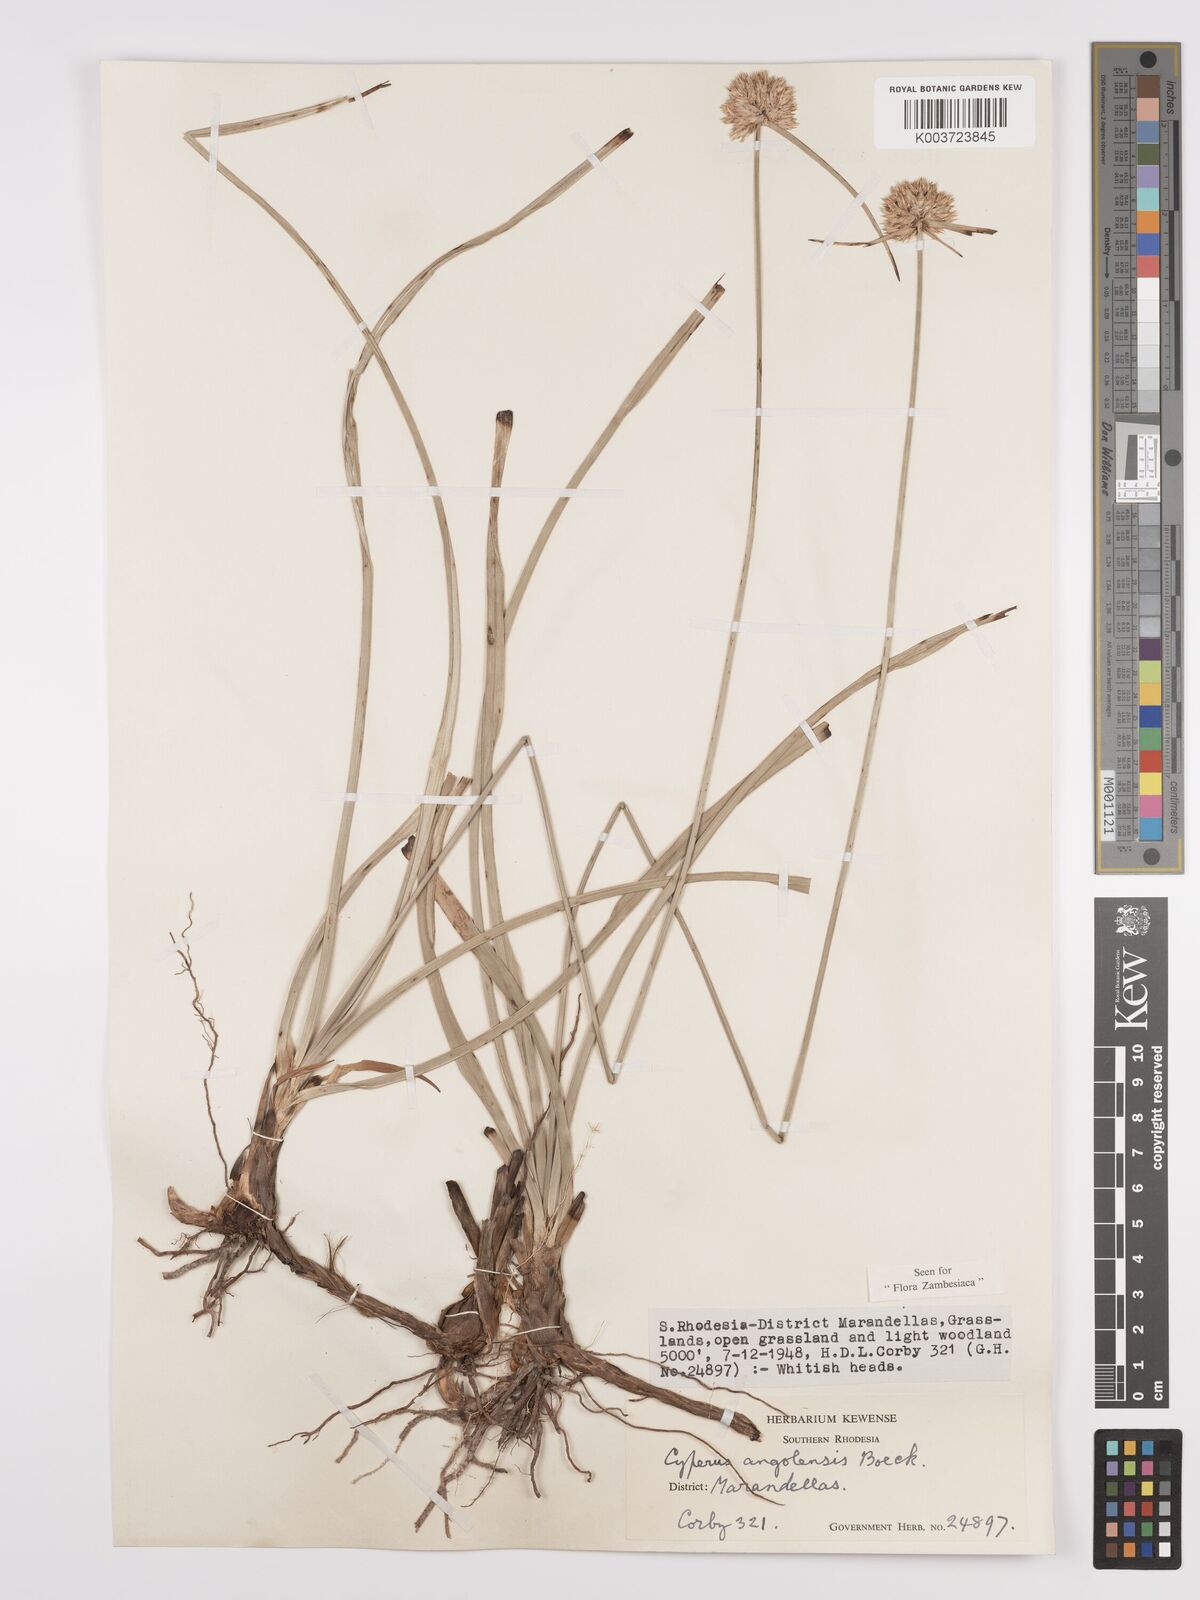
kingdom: Plantae
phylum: Tracheophyta
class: Liliopsida
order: Poales
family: Cyperaceae
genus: Cyperus
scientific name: Cyperus angolensis
